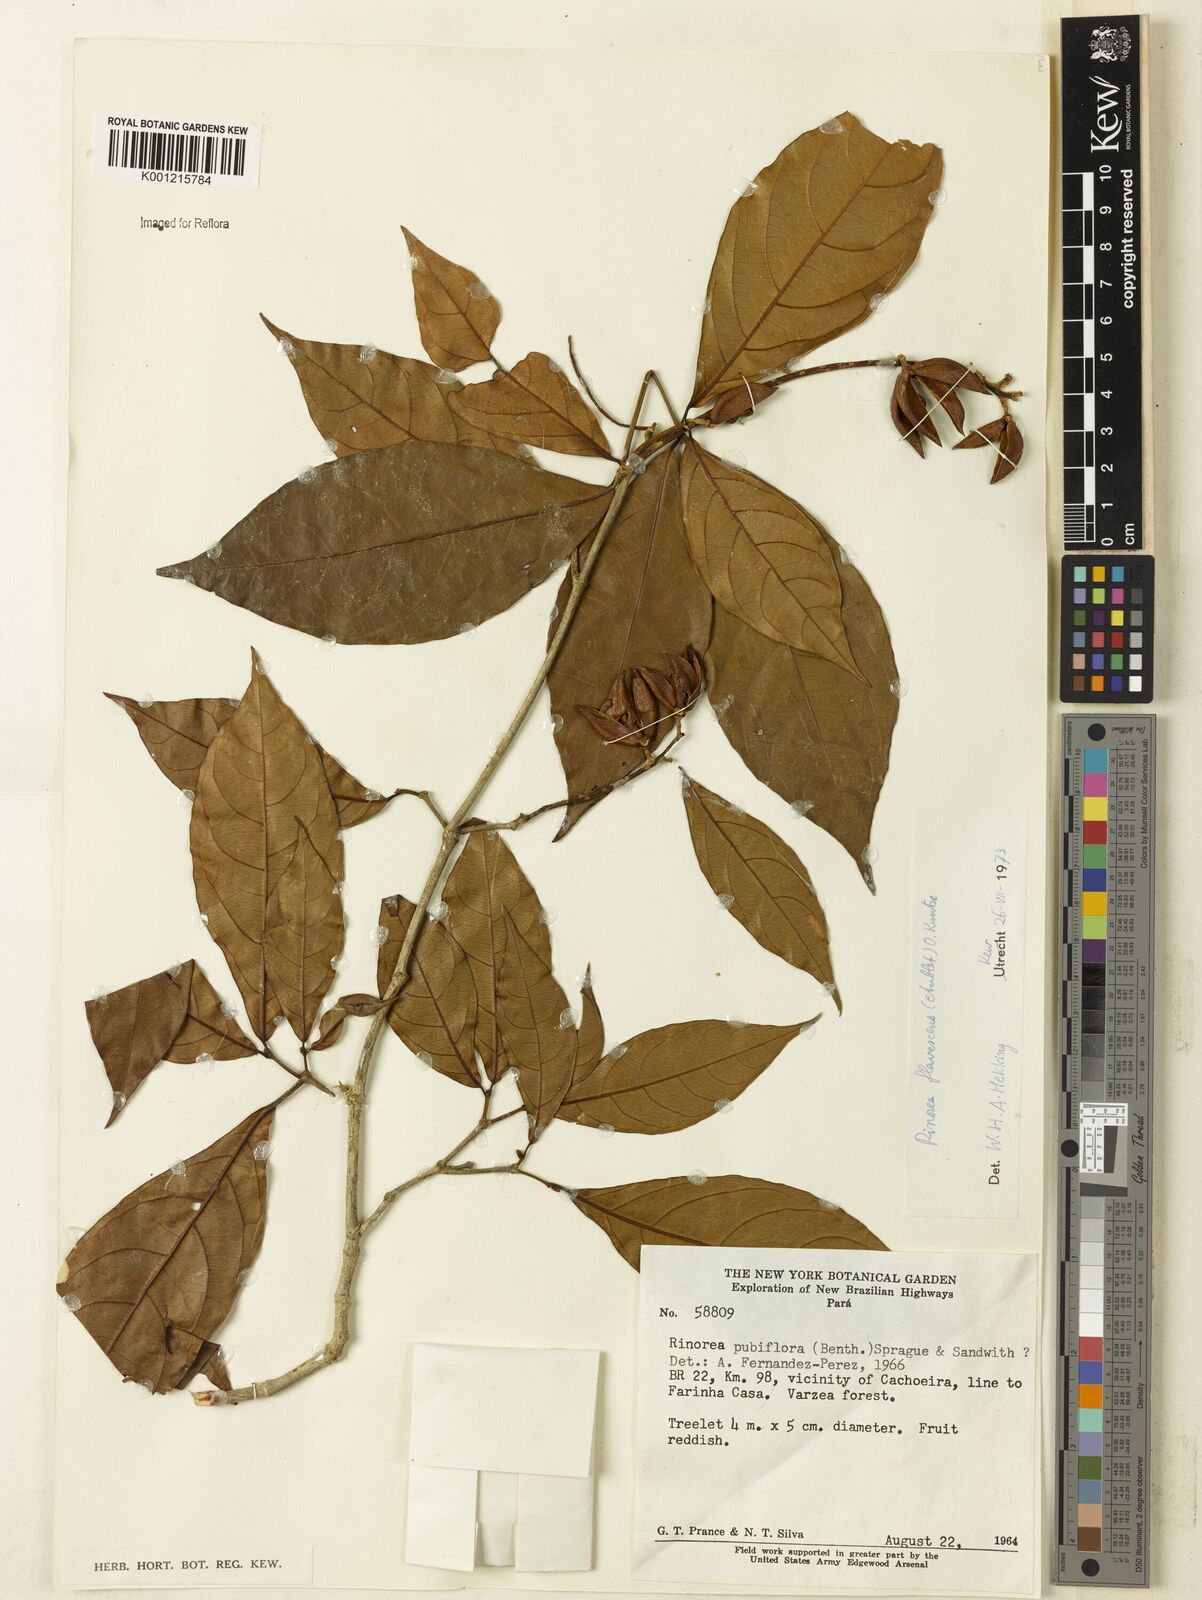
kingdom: Plantae
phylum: Tracheophyta
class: Magnoliopsida
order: Malpighiales
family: Violaceae
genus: Rinorea
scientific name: Rinorea flavescens
